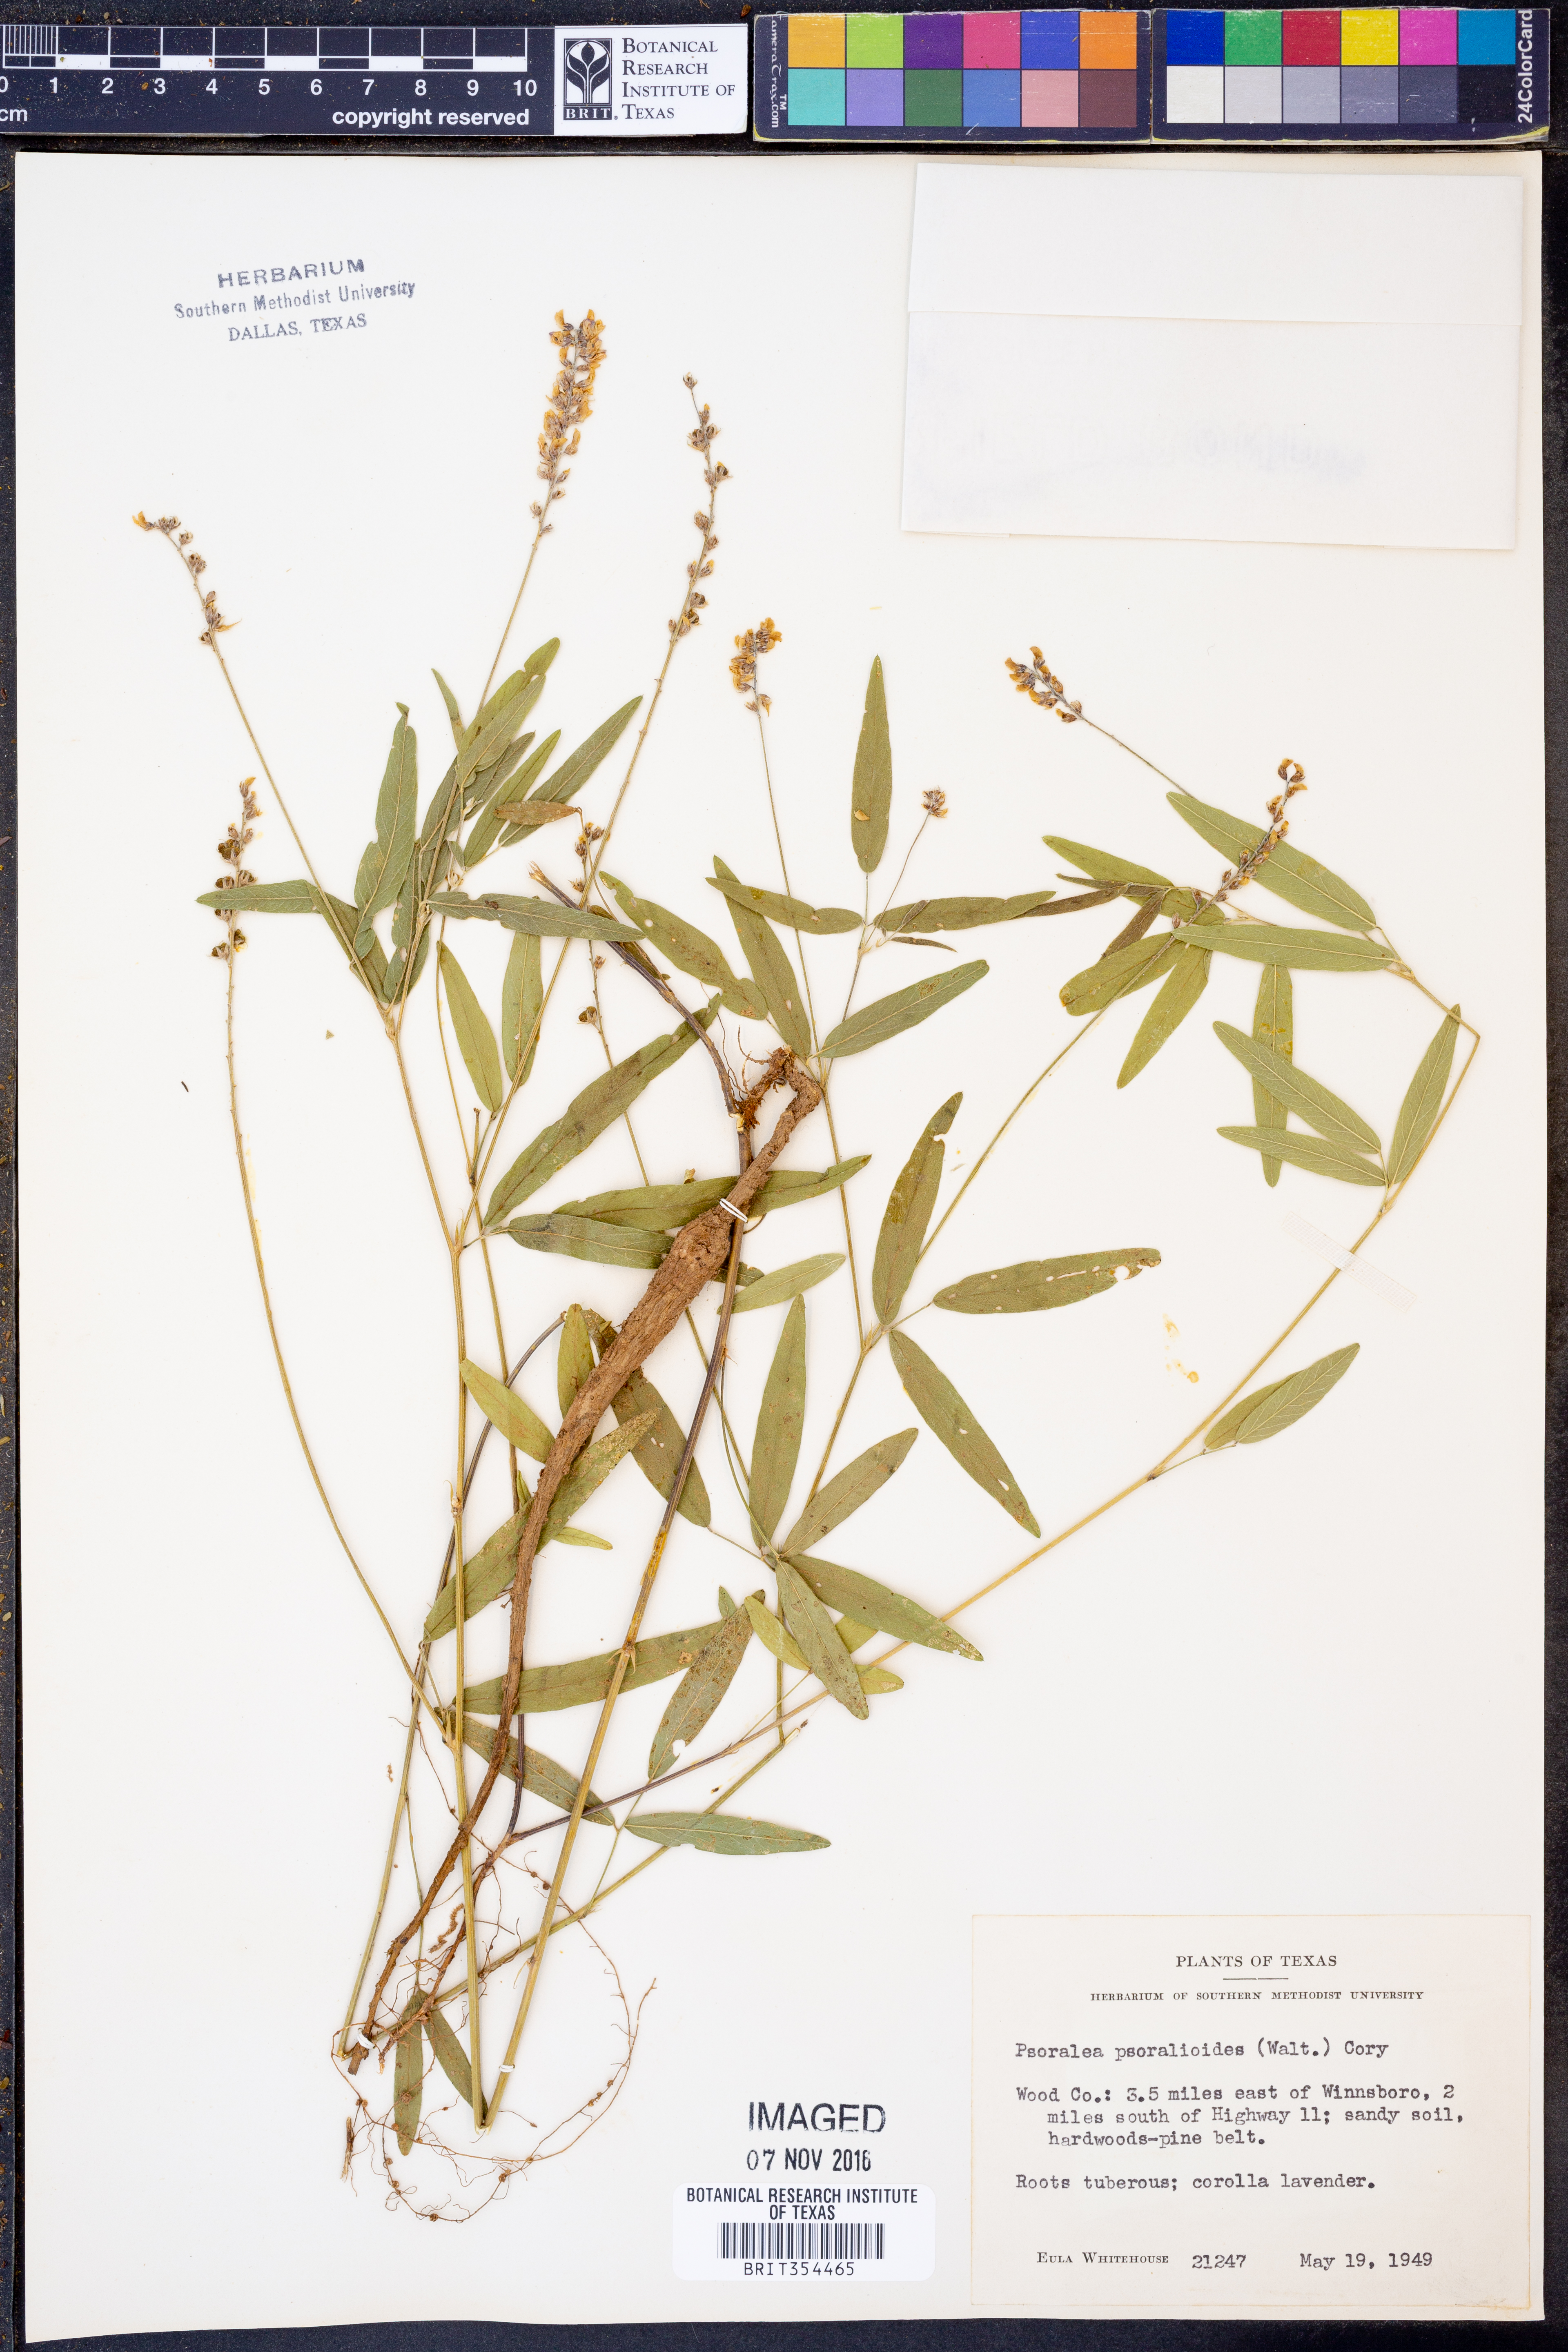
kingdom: Plantae
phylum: Tracheophyta
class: Magnoliopsida
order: Fabales
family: Fabaceae
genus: Orbexilum
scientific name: Orbexilum psoralioides
